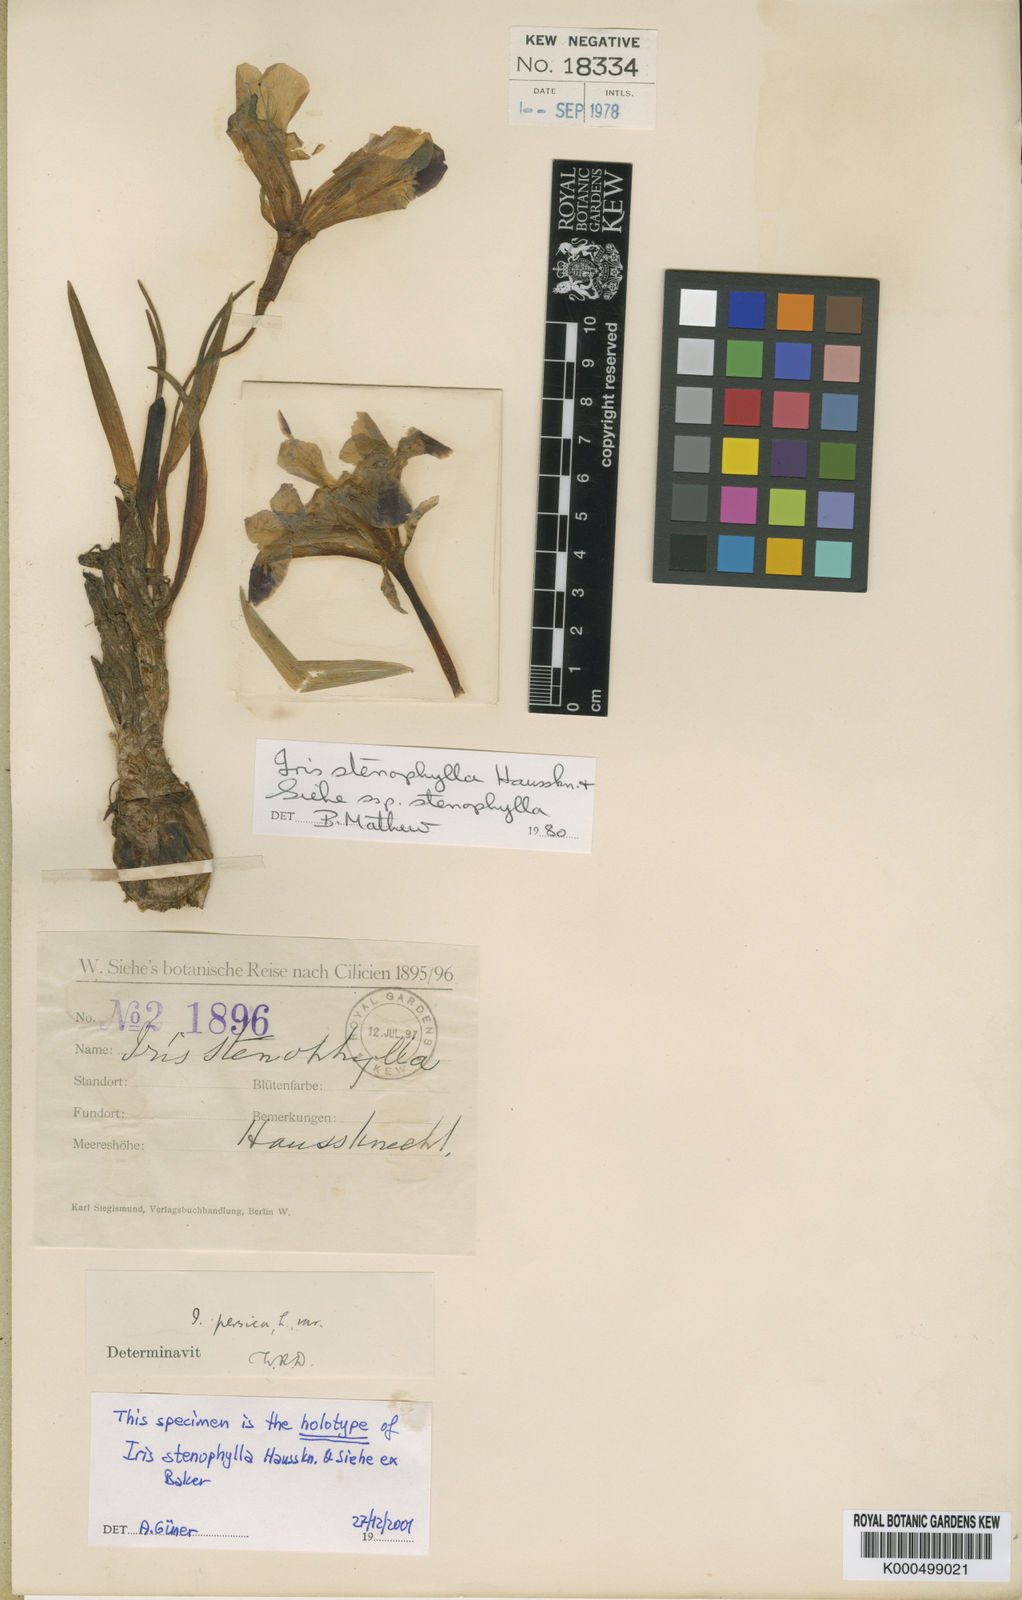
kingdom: Plantae
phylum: Tracheophyta
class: Liliopsida
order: Asparagales
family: Iridaceae
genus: Iris
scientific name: Iris stenophylla
